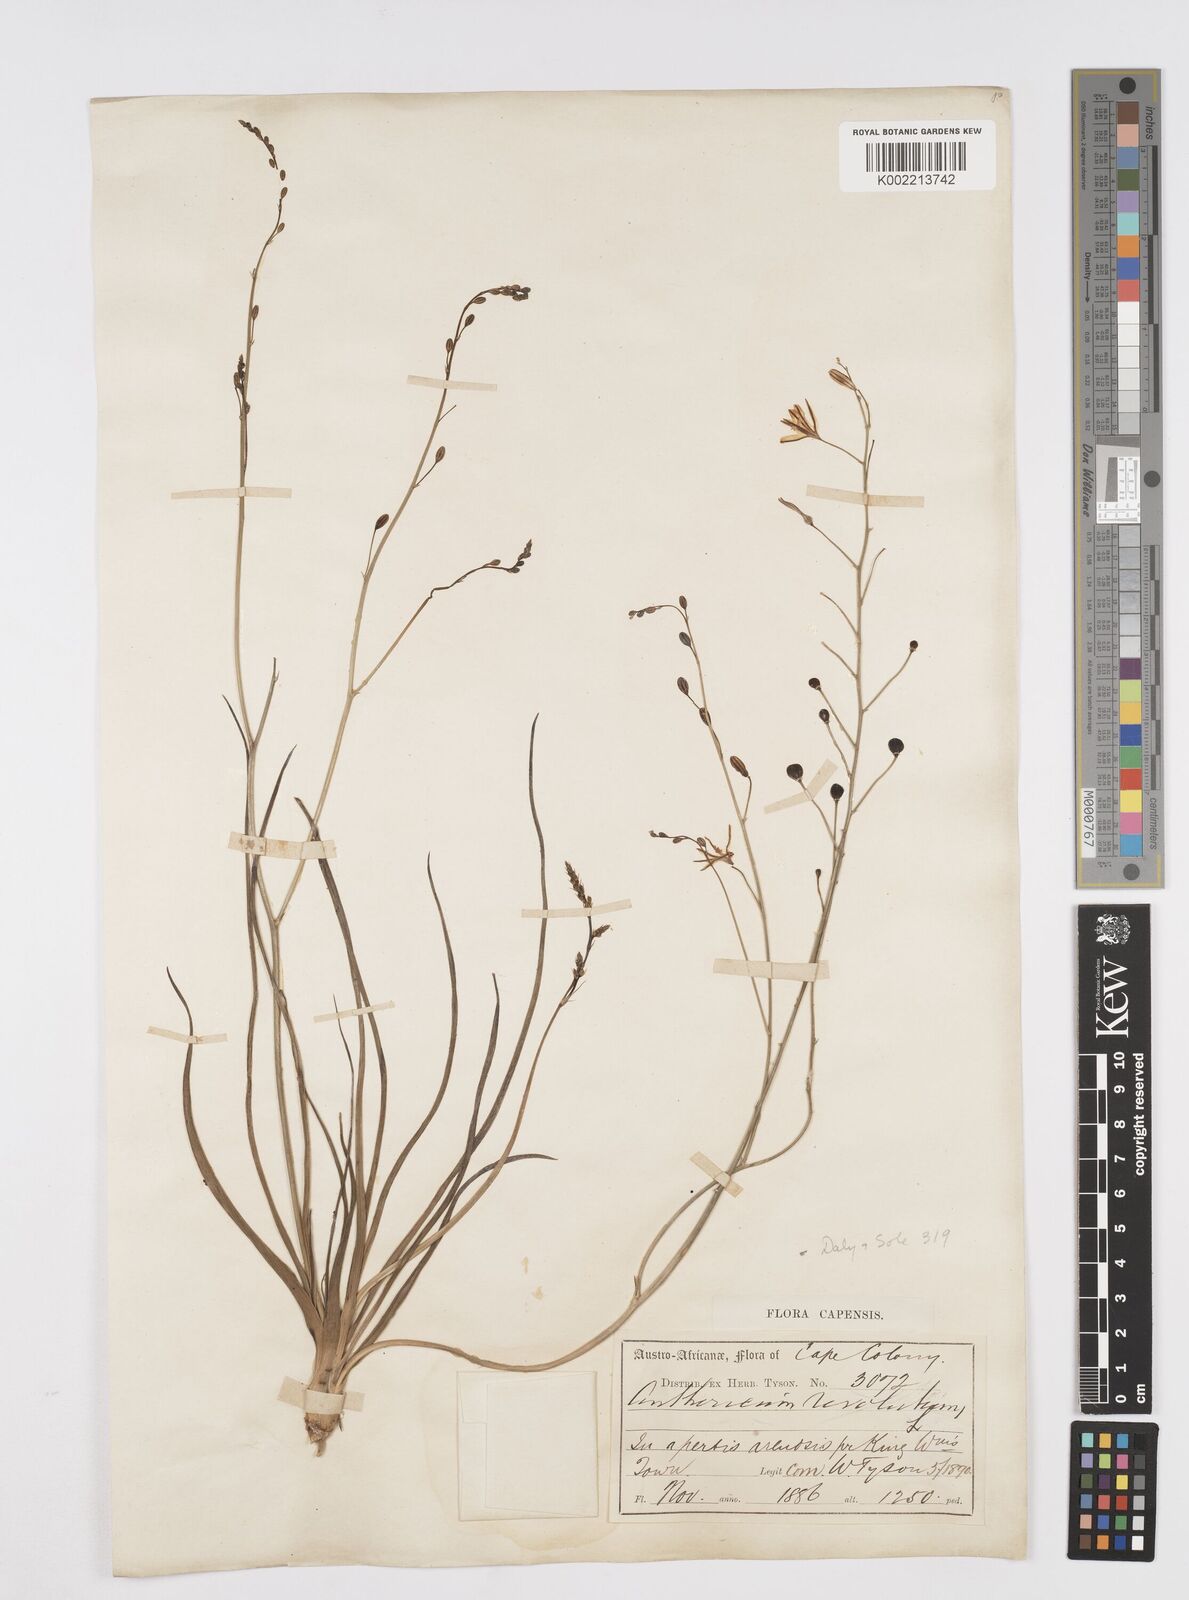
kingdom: Plantae
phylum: Tracheophyta
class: Liliopsida
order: Asparagales
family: Asphodelaceae
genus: Trachyandra
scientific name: Trachyandra divaricata
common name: Dune onionweed
